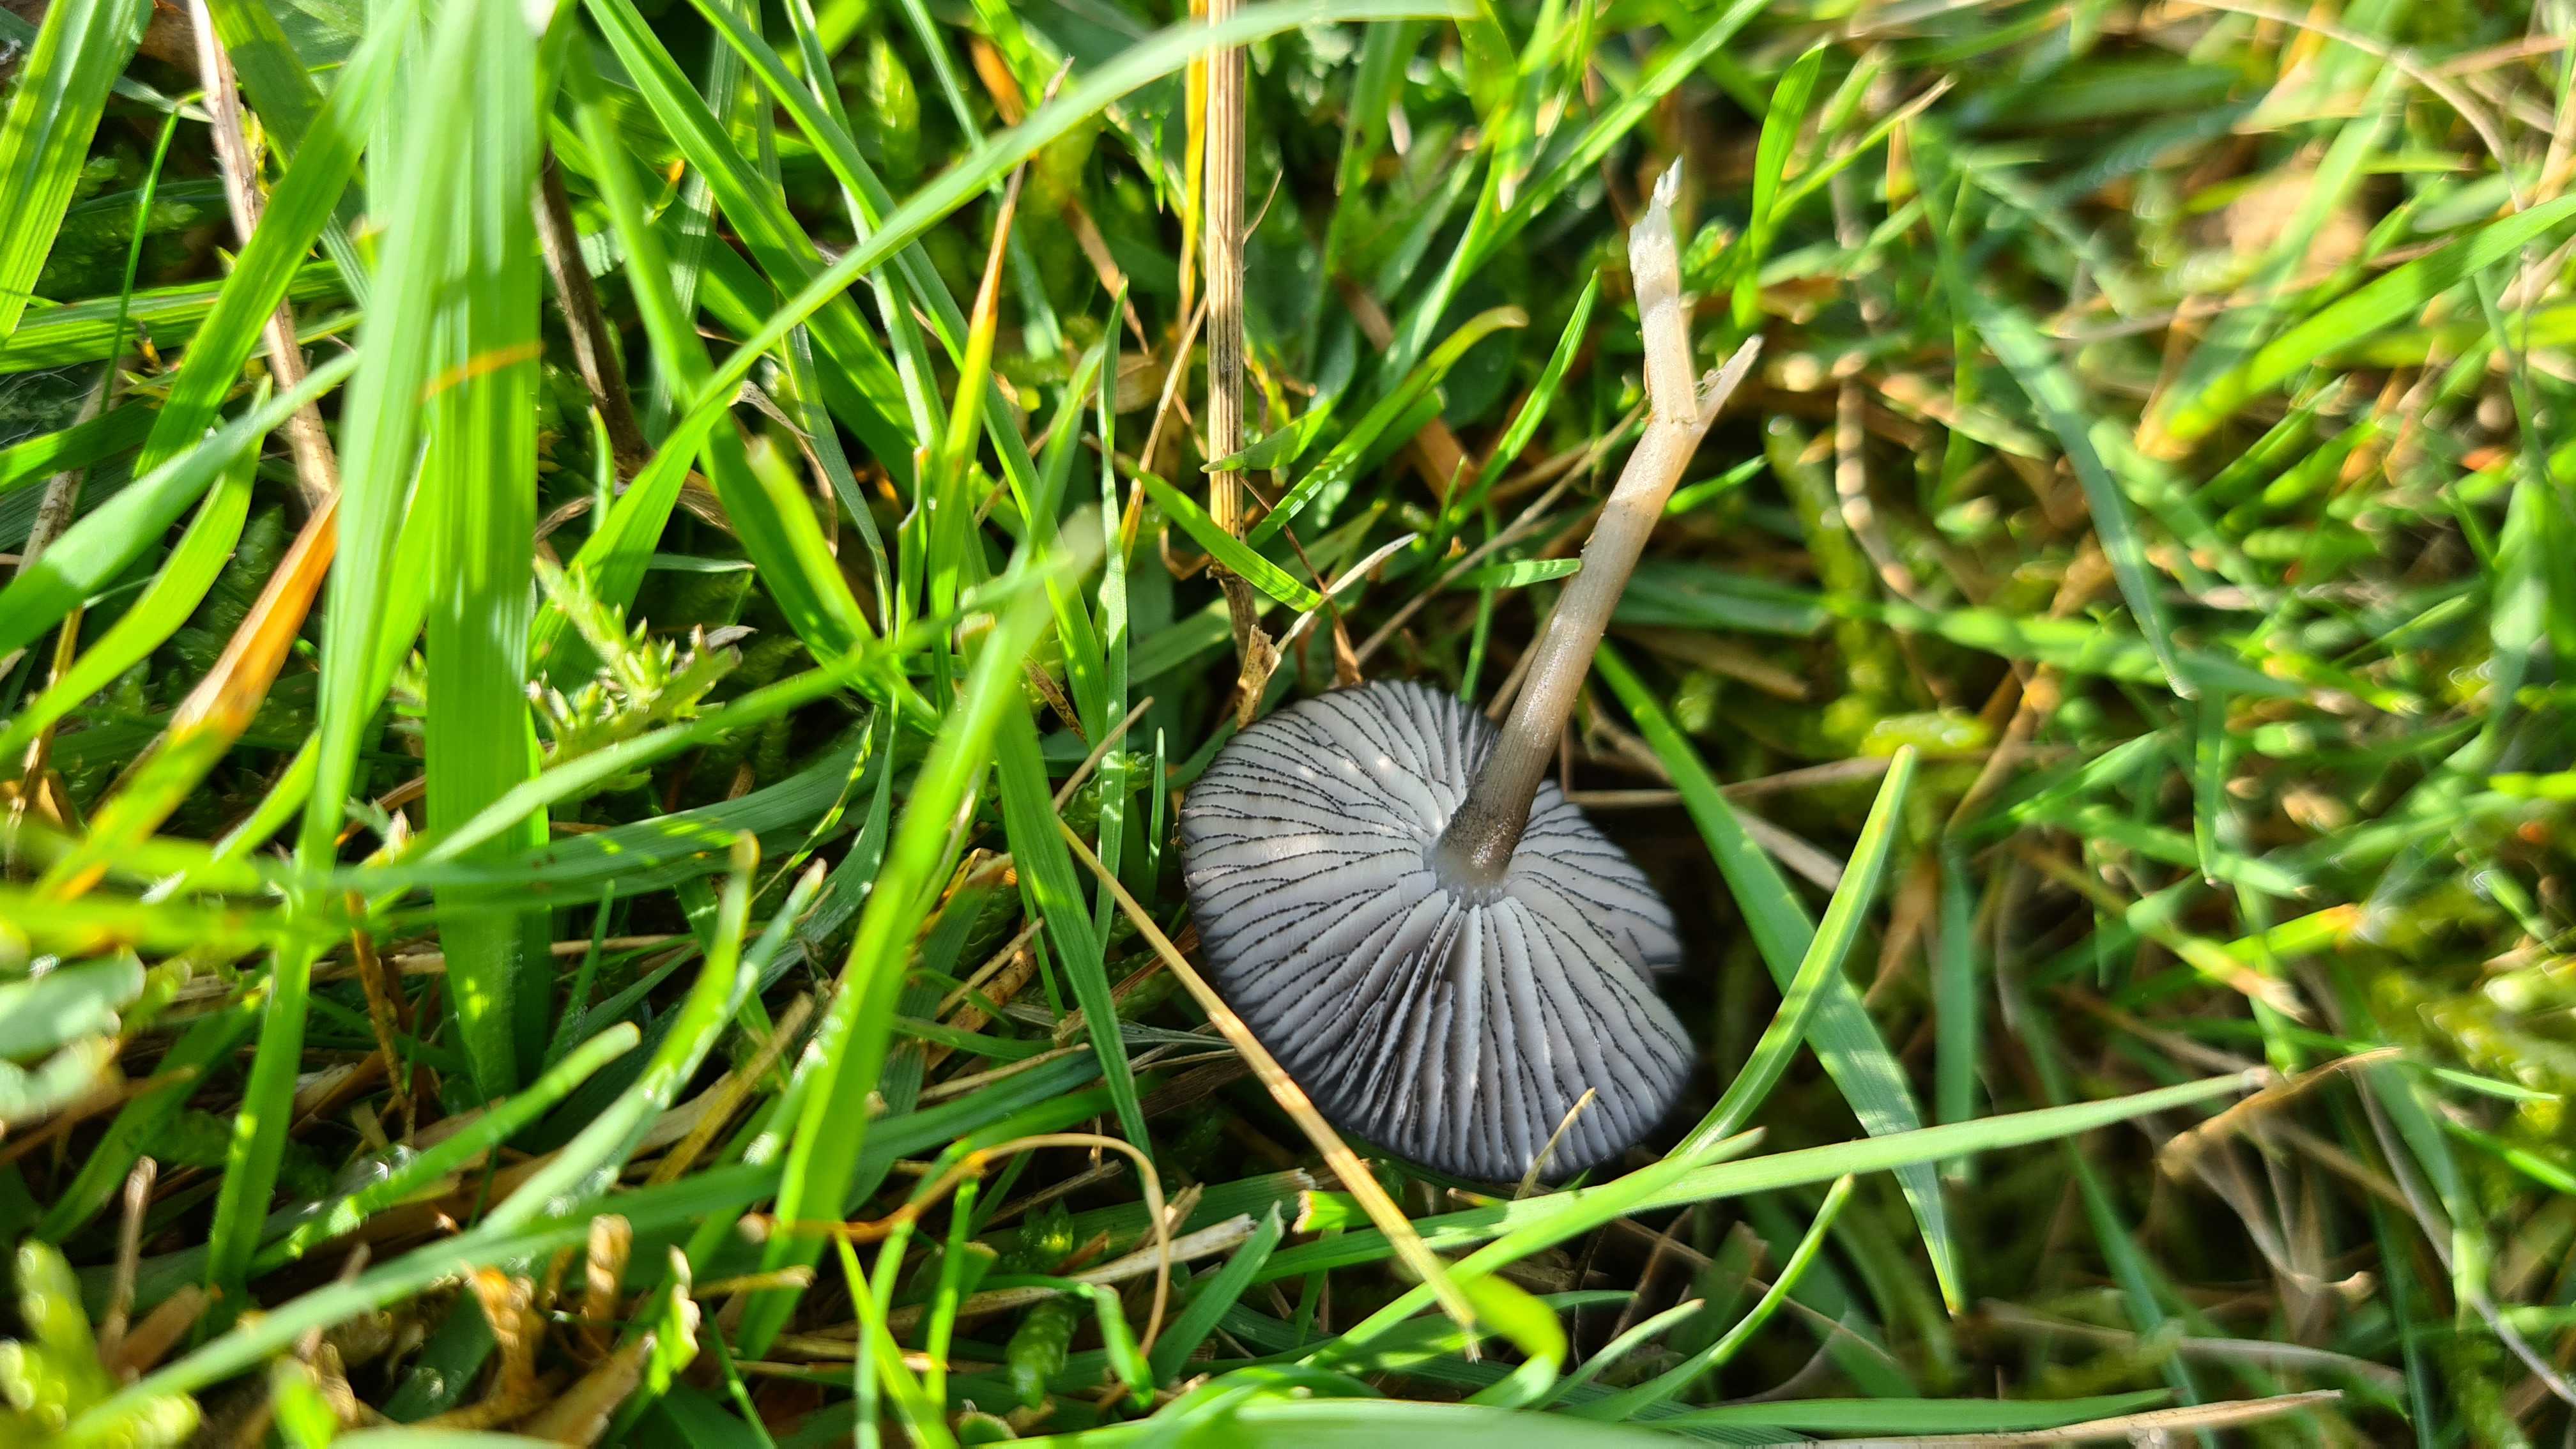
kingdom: Fungi
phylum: Basidiomycota
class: Agaricomycetes
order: Agaricales
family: Entolomataceae
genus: Entoloma
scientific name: Entoloma
